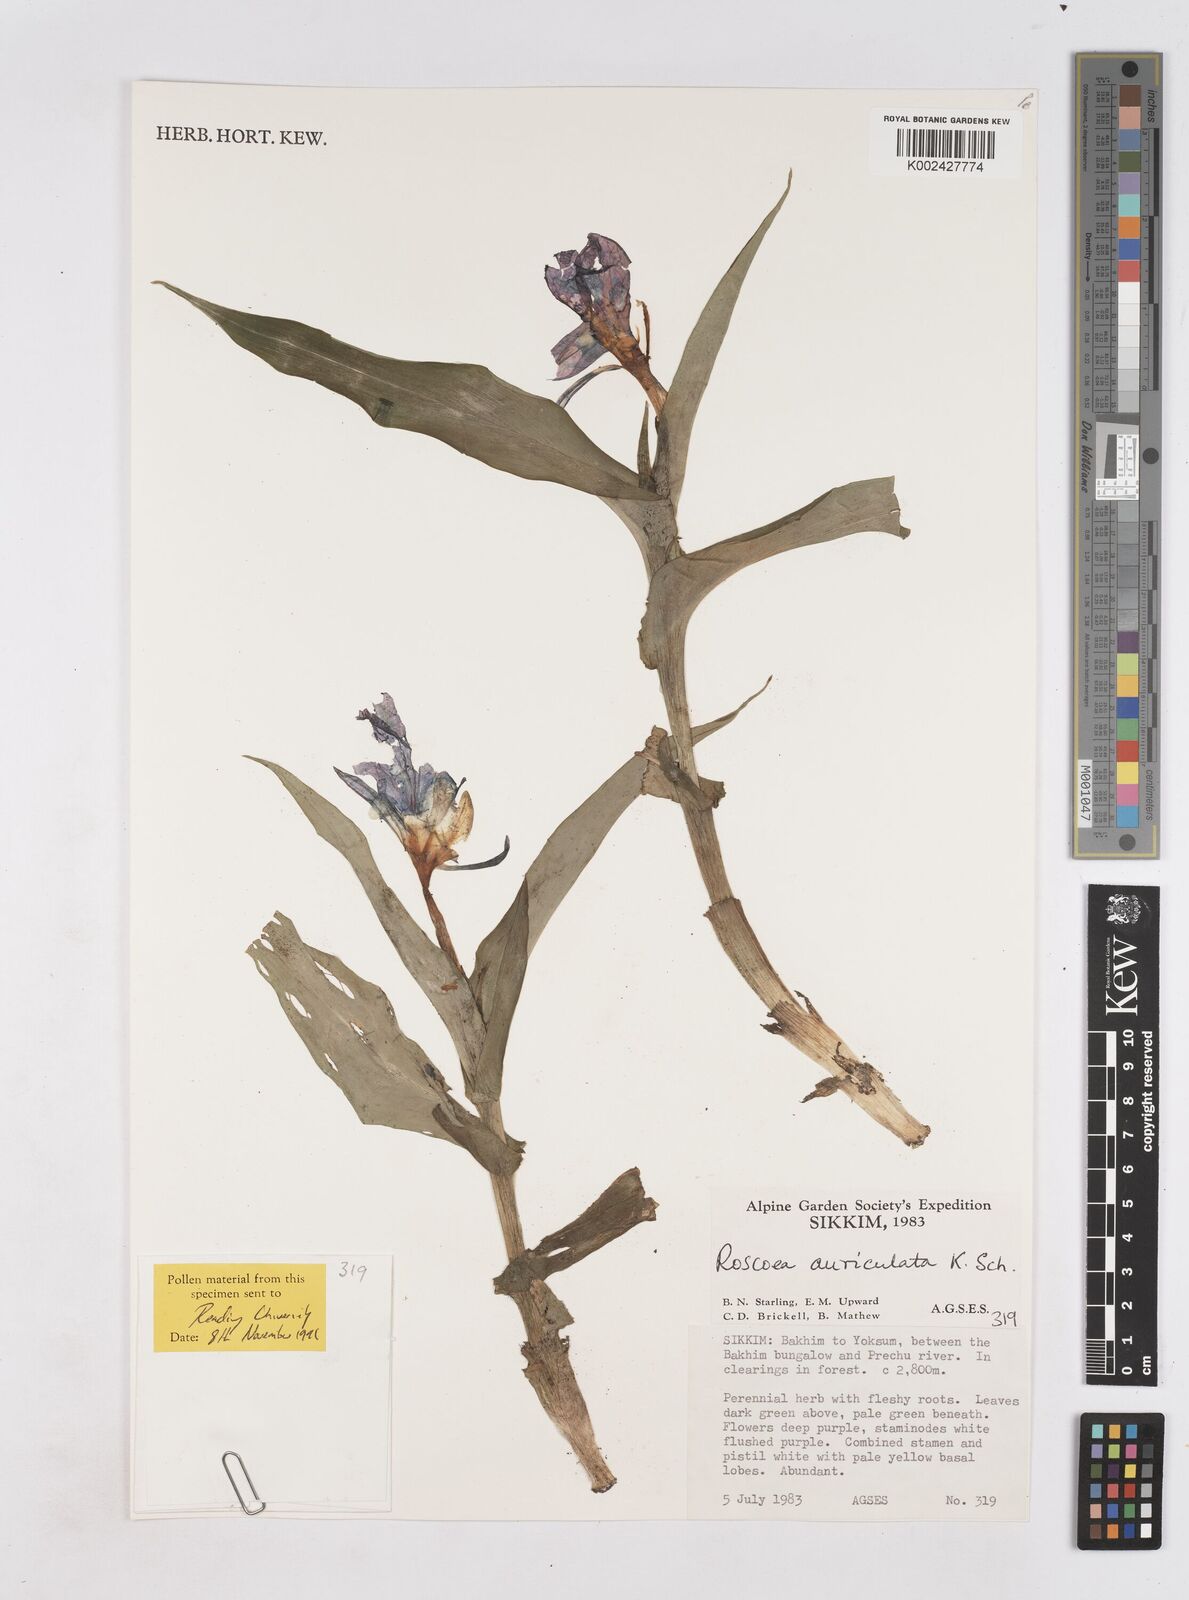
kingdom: Plantae
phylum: Tracheophyta
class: Liliopsida
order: Zingiberales
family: Zingiberaceae
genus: Roscoea
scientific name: Roscoea auriculata
